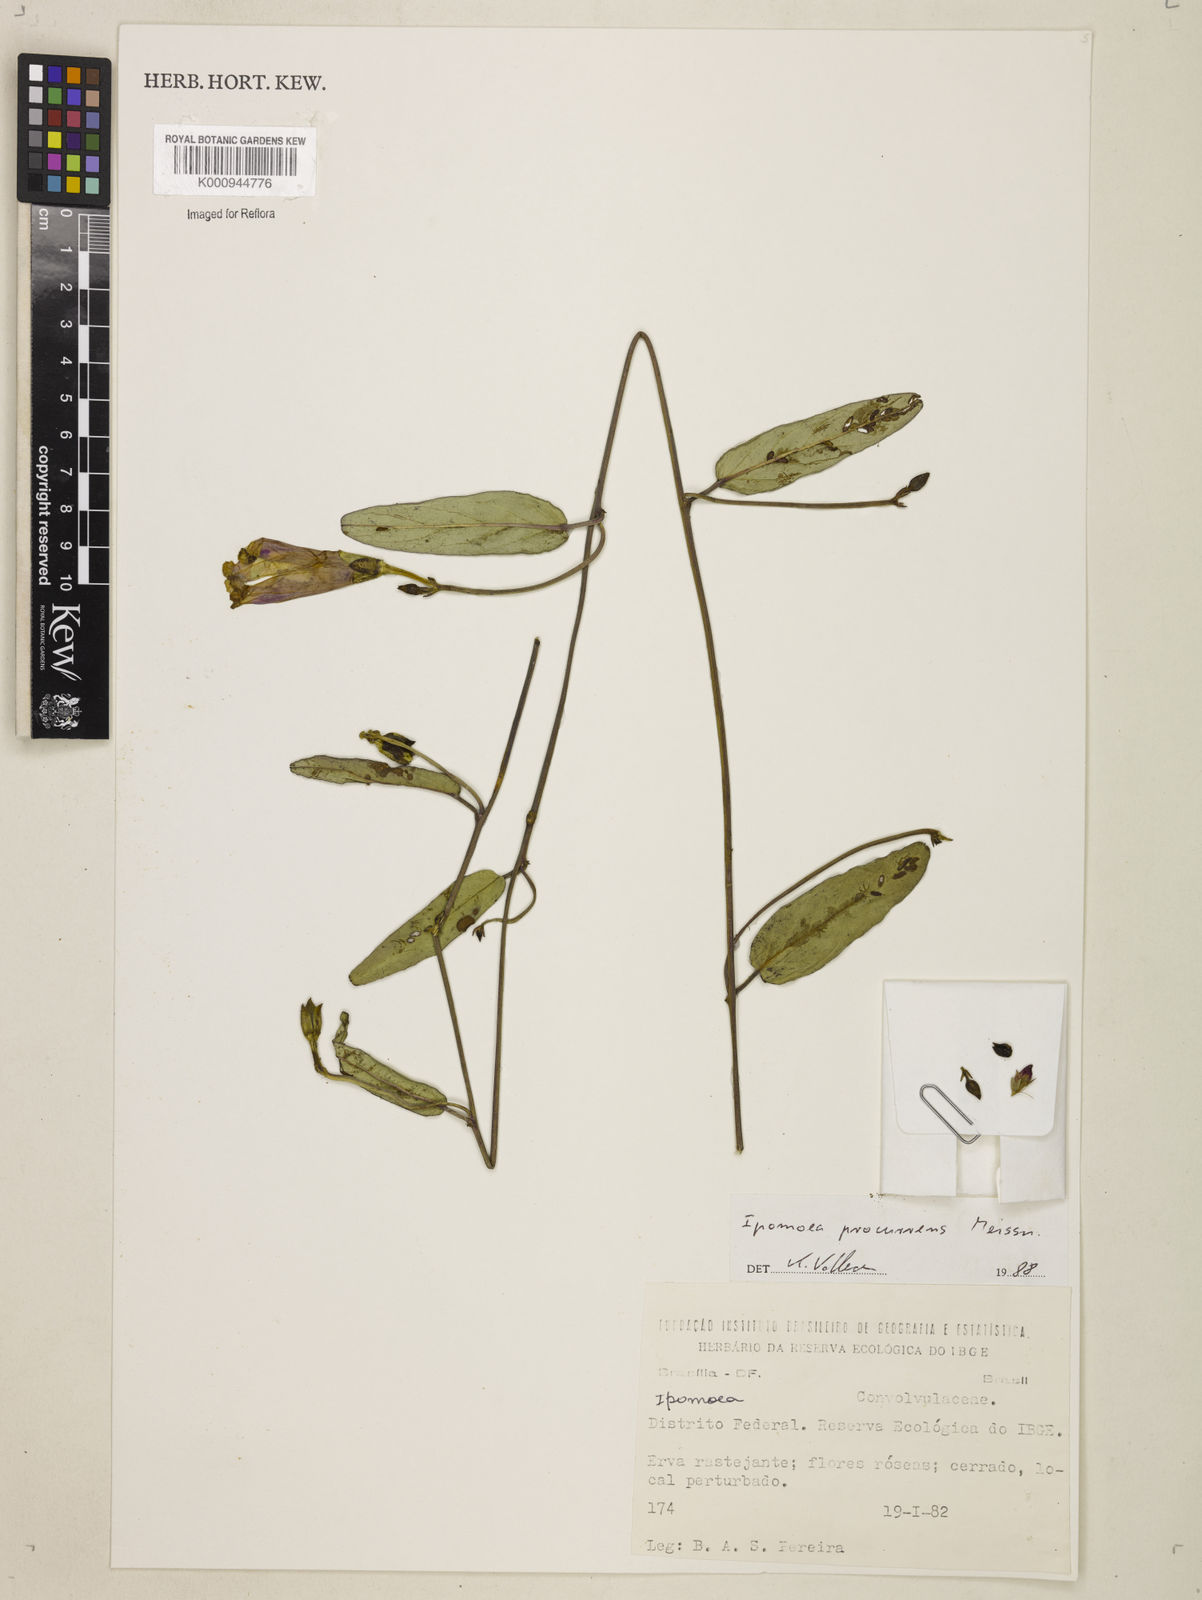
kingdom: Plantae
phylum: Tracheophyta
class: Magnoliopsida
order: Solanales
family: Convolvulaceae
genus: Ipomoea
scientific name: Ipomoea procurrens
